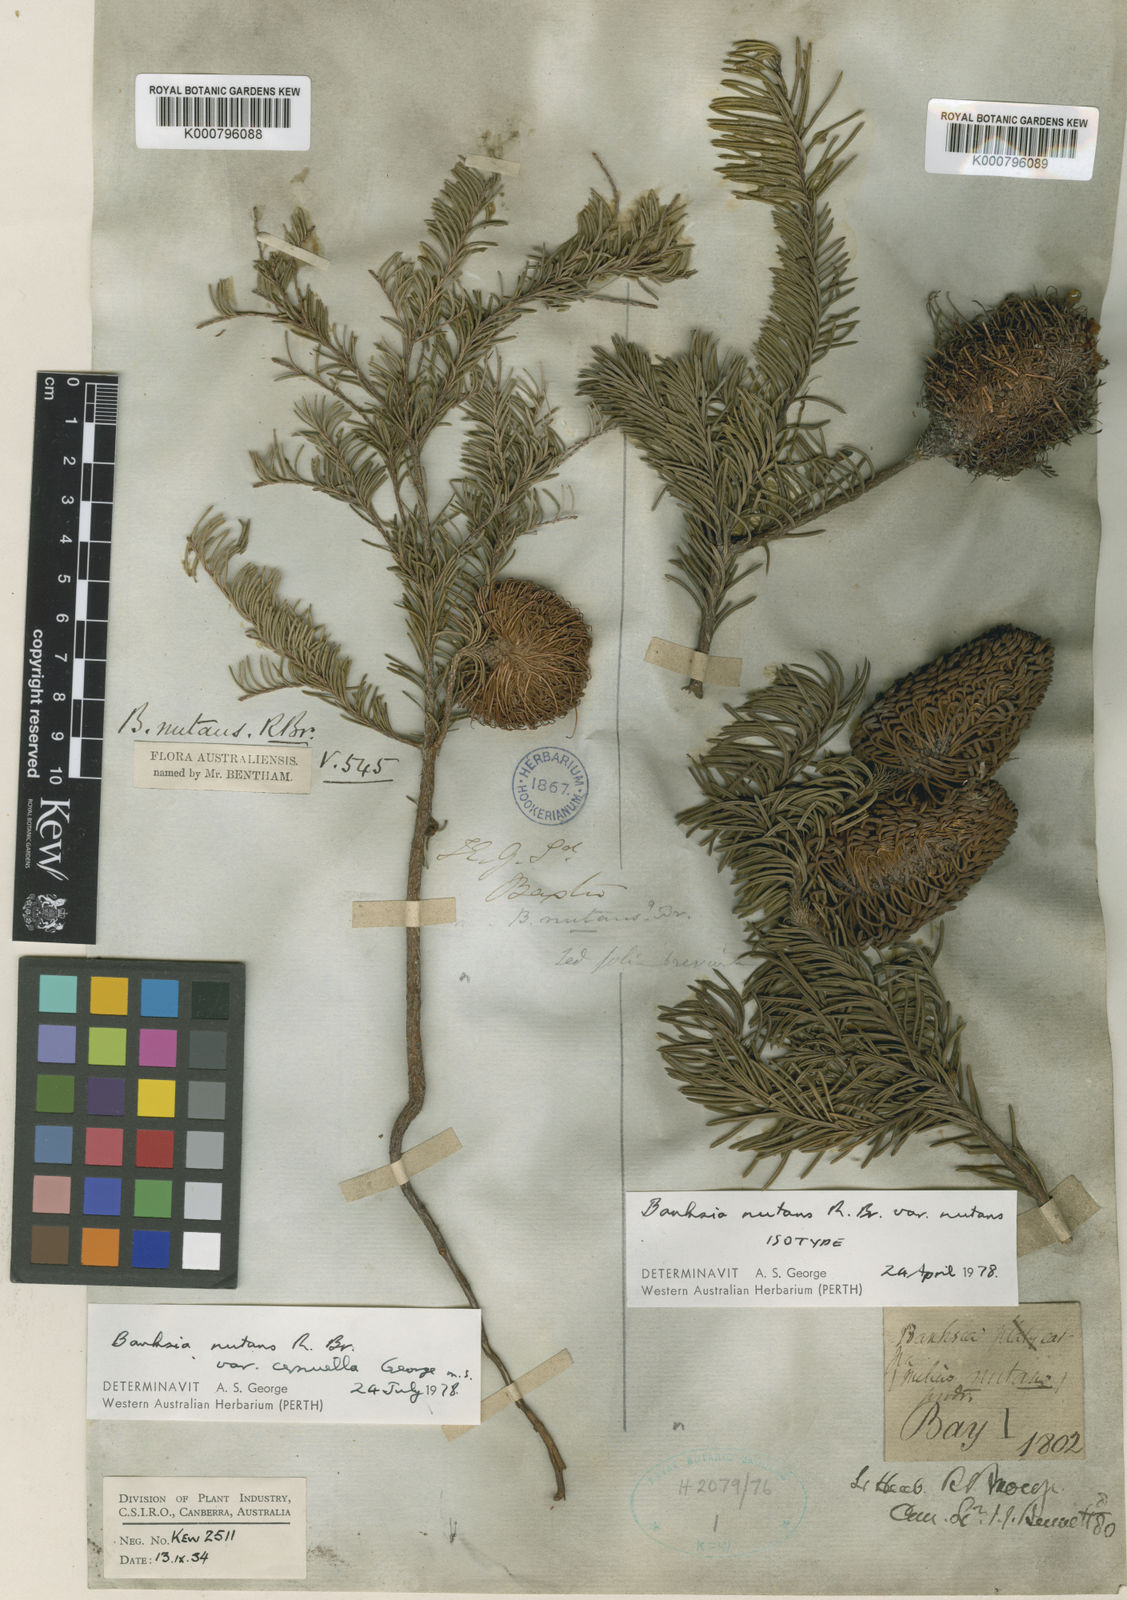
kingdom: Plantae
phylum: Tracheophyta
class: Magnoliopsida
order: Proteales
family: Proteaceae
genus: Banksia
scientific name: Banksia nutans
